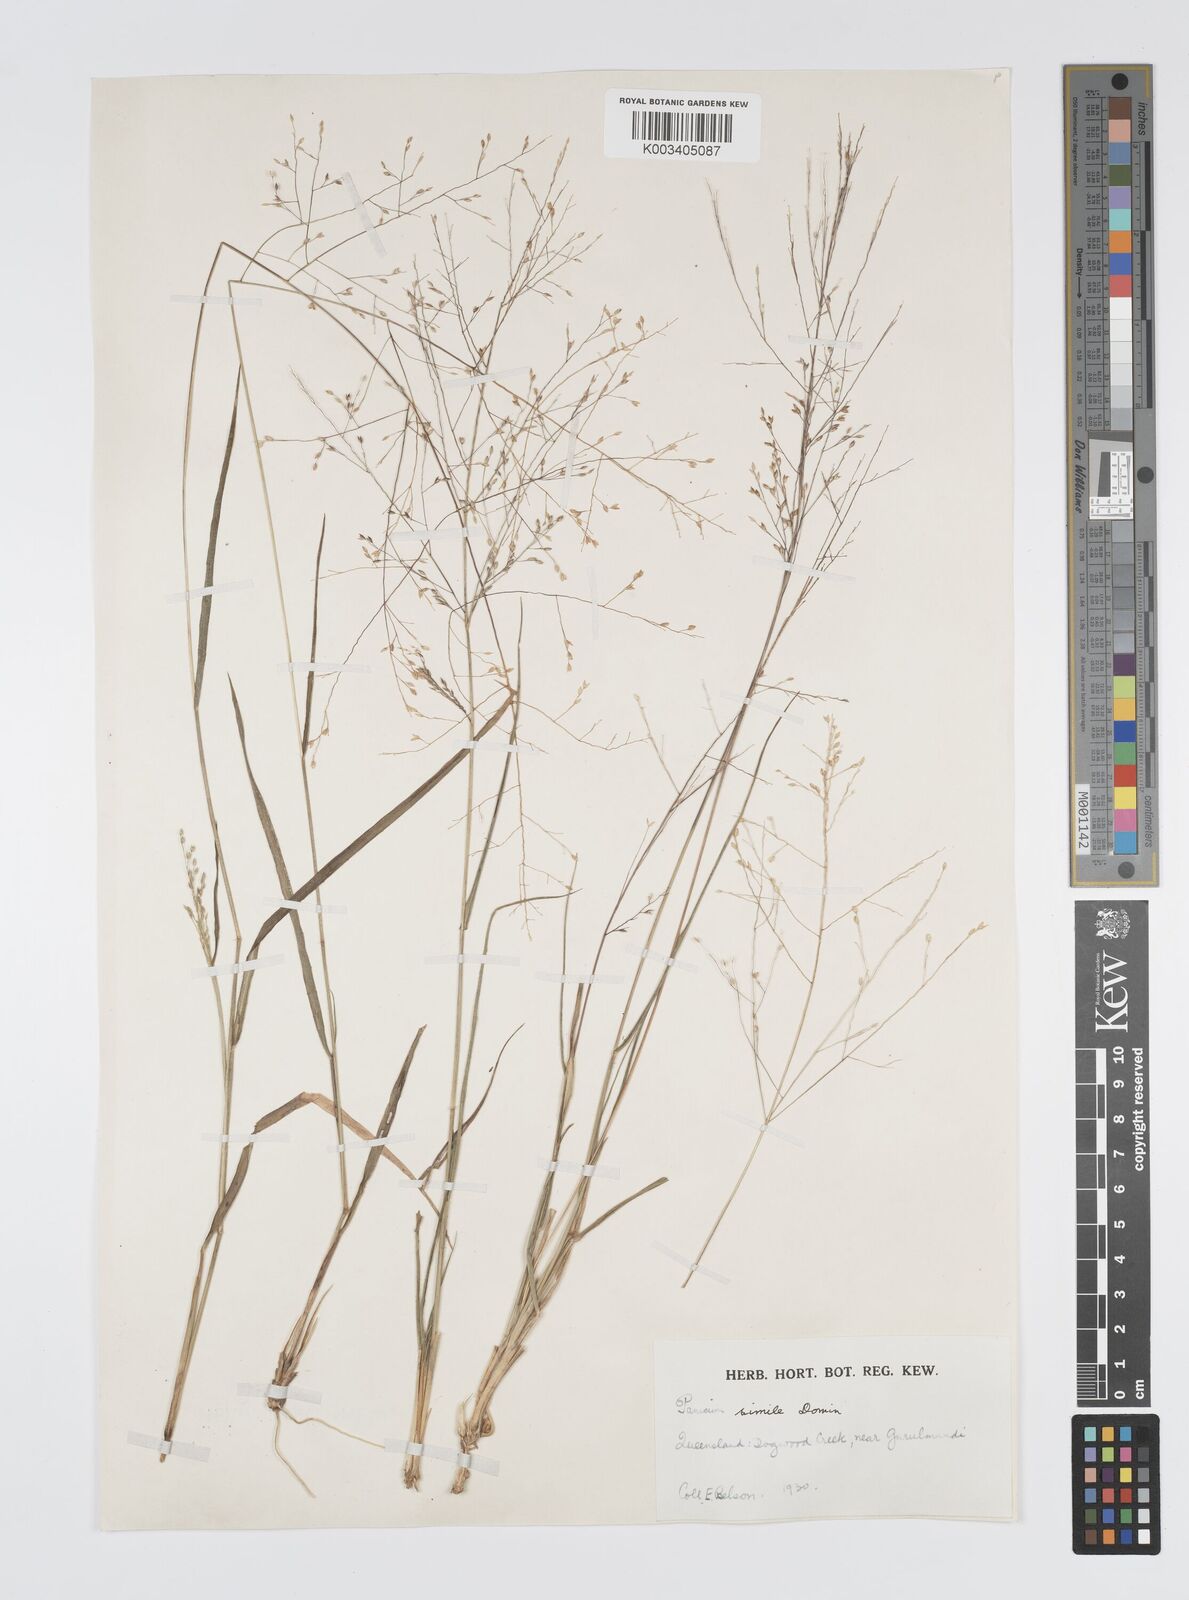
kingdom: Plantae
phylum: Tracheophyta
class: Liliopsida
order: Poales
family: Poaceae
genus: Panicum
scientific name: Panicum simile
